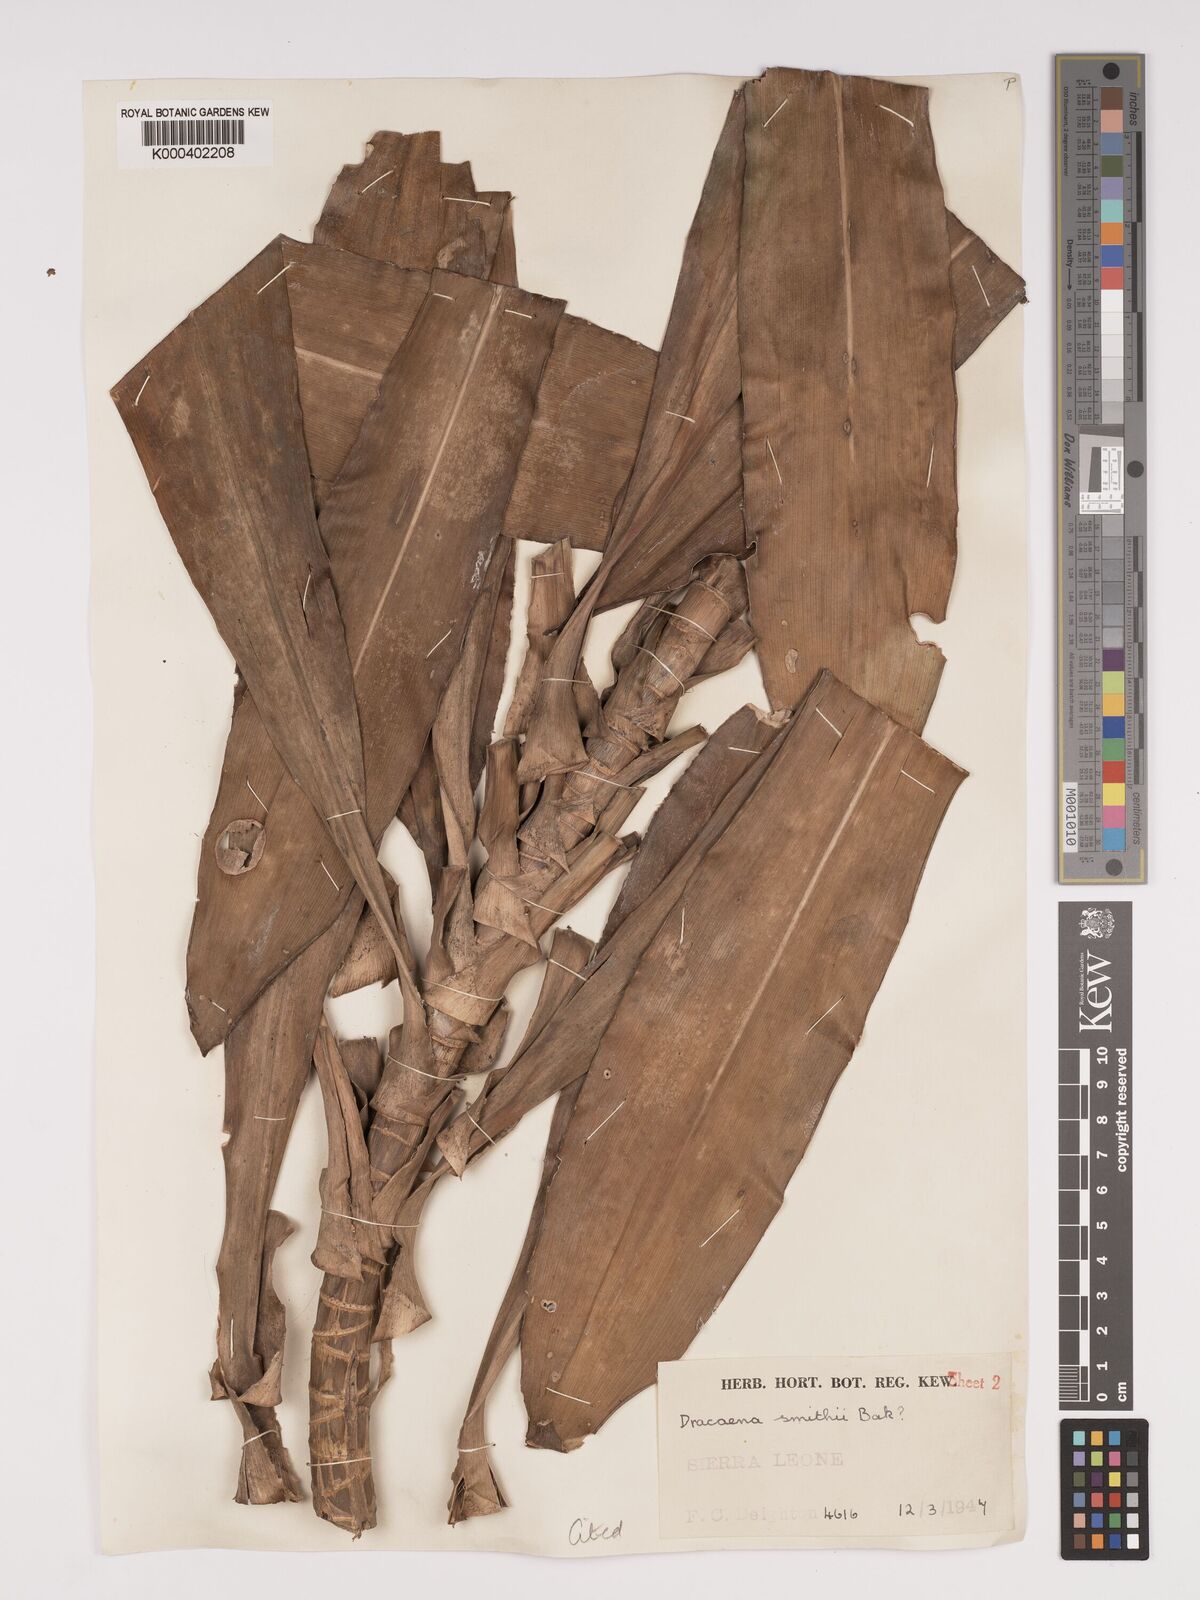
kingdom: Plantae
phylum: Tracheophyta
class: Liliopsida
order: Asparagales
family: Asparagaceae
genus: Dracaena
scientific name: Dracaena fragrans
